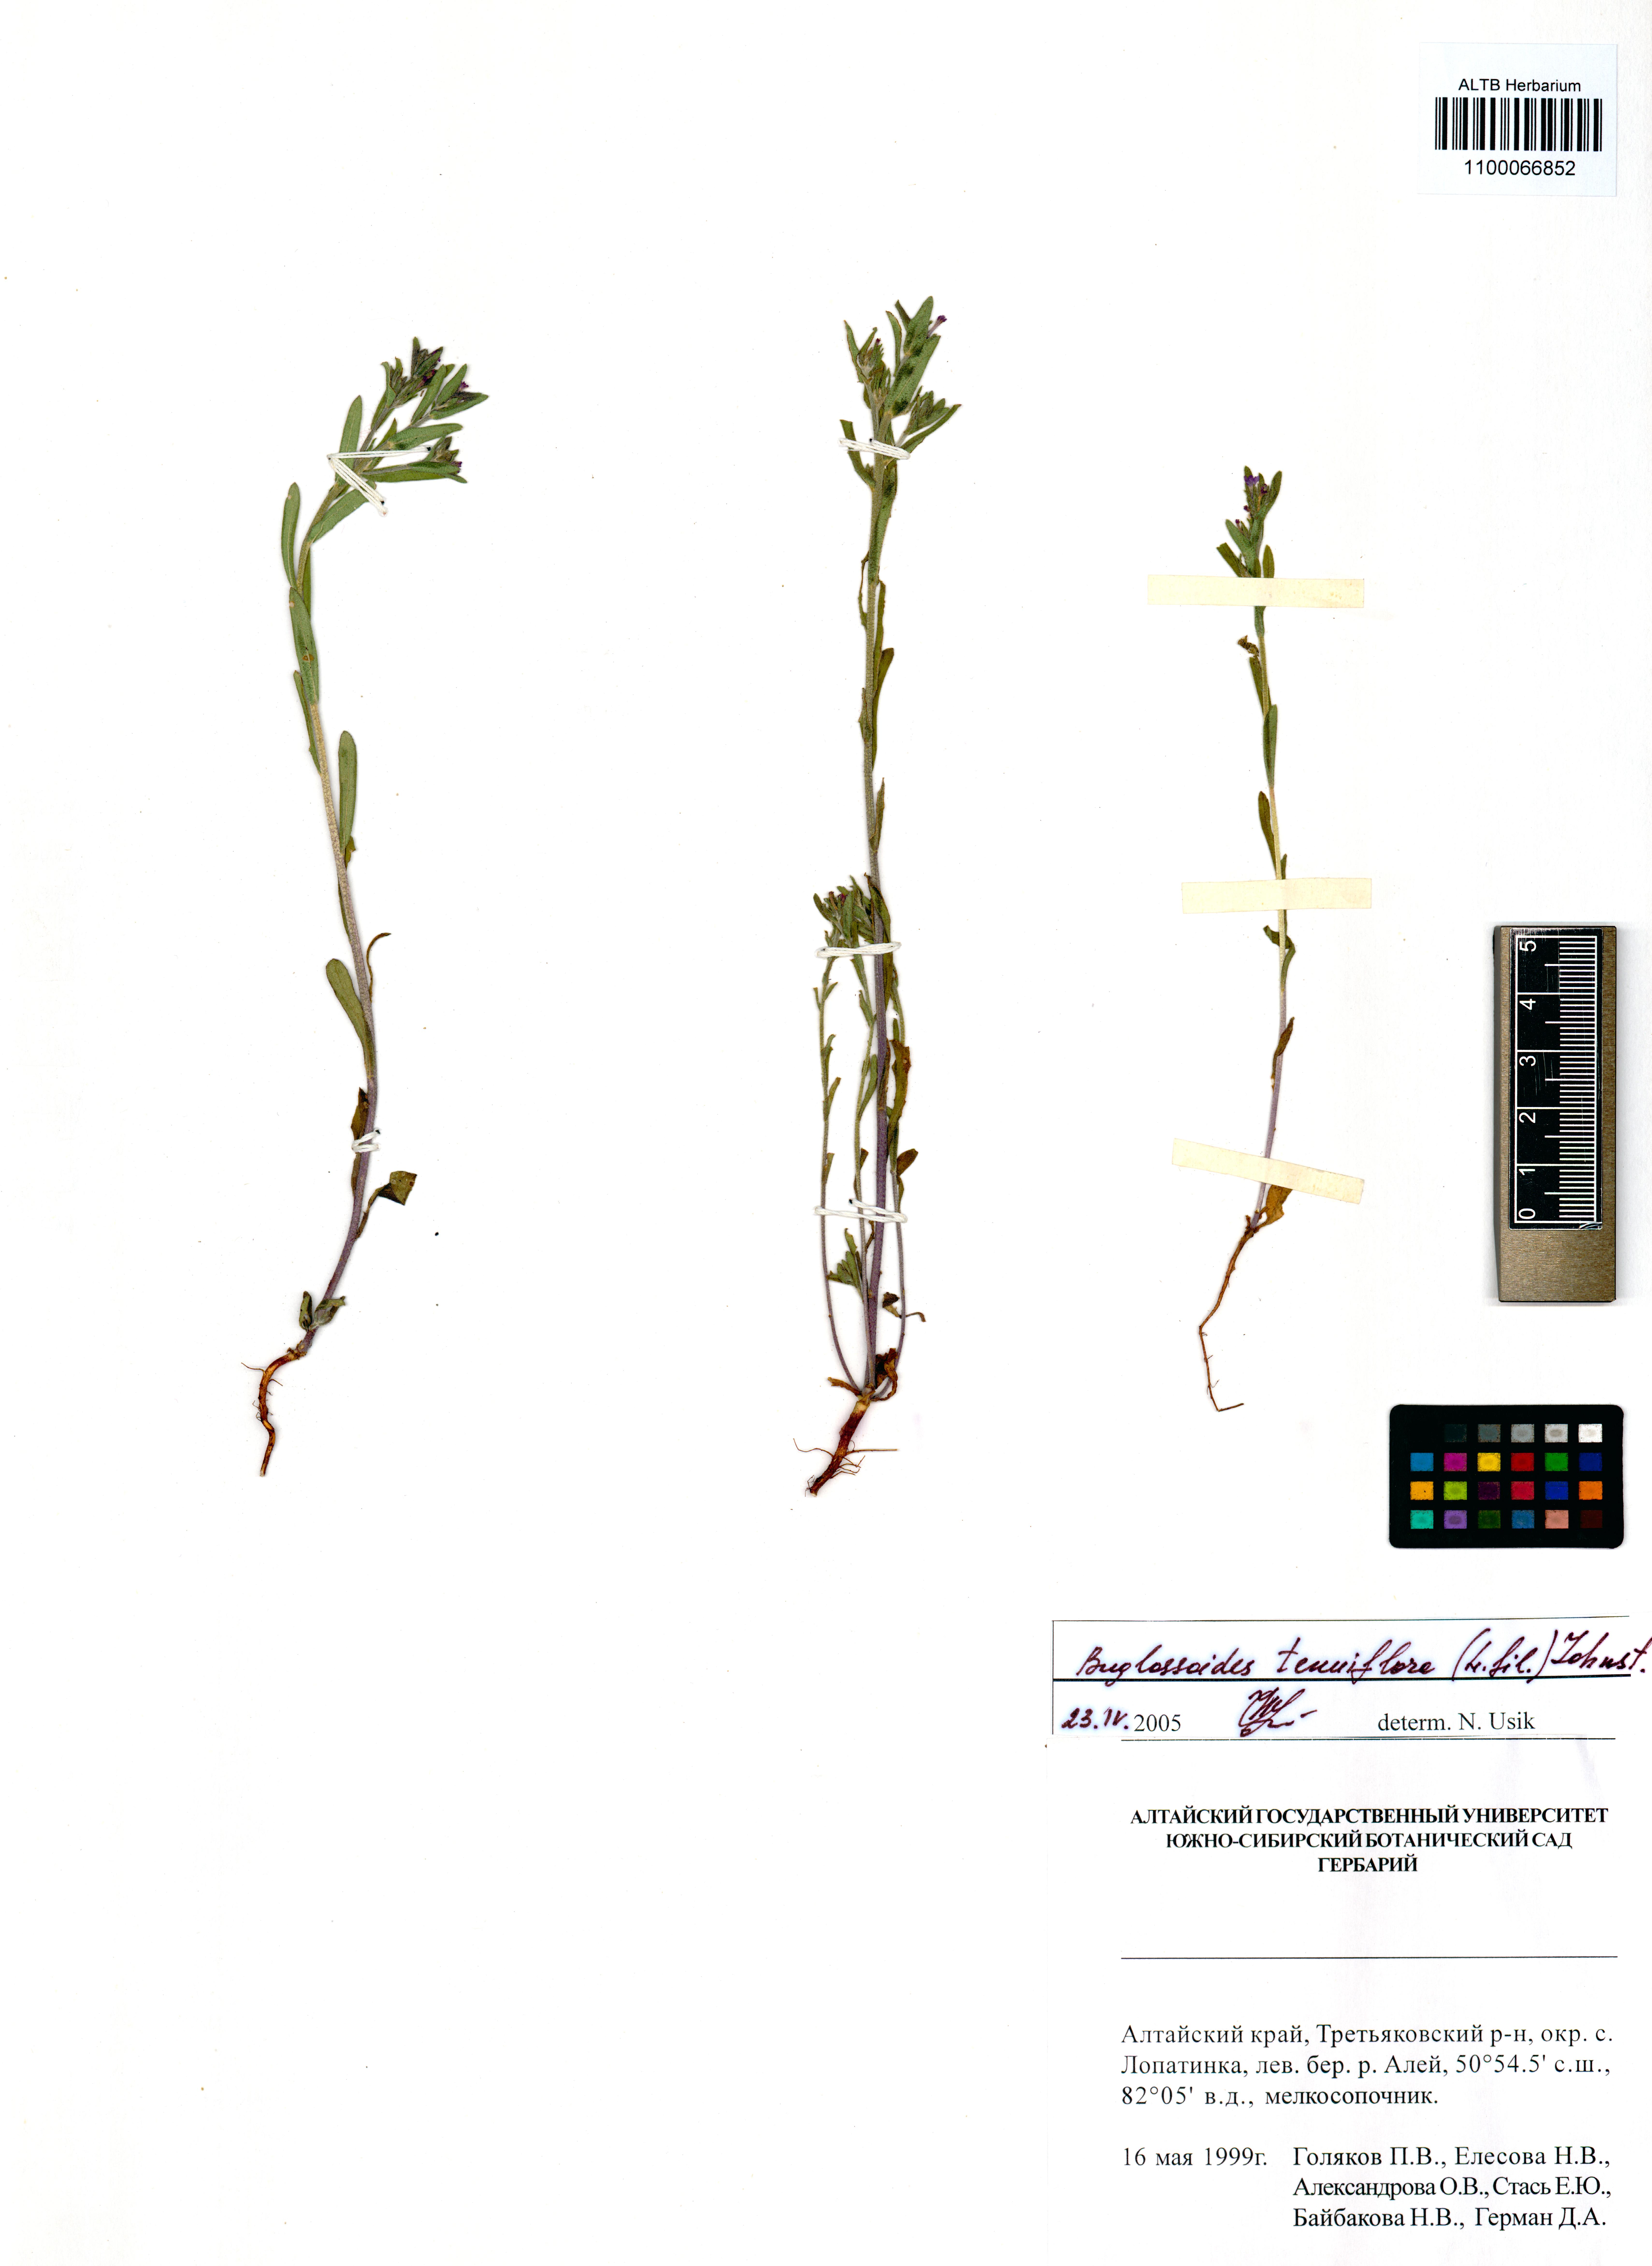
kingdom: Plantae
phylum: Tracheophyta
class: Magnoliopsida
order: Boraginales
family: Boraginaceae
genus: Buglossoides
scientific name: Buglossoides tenuiflora
